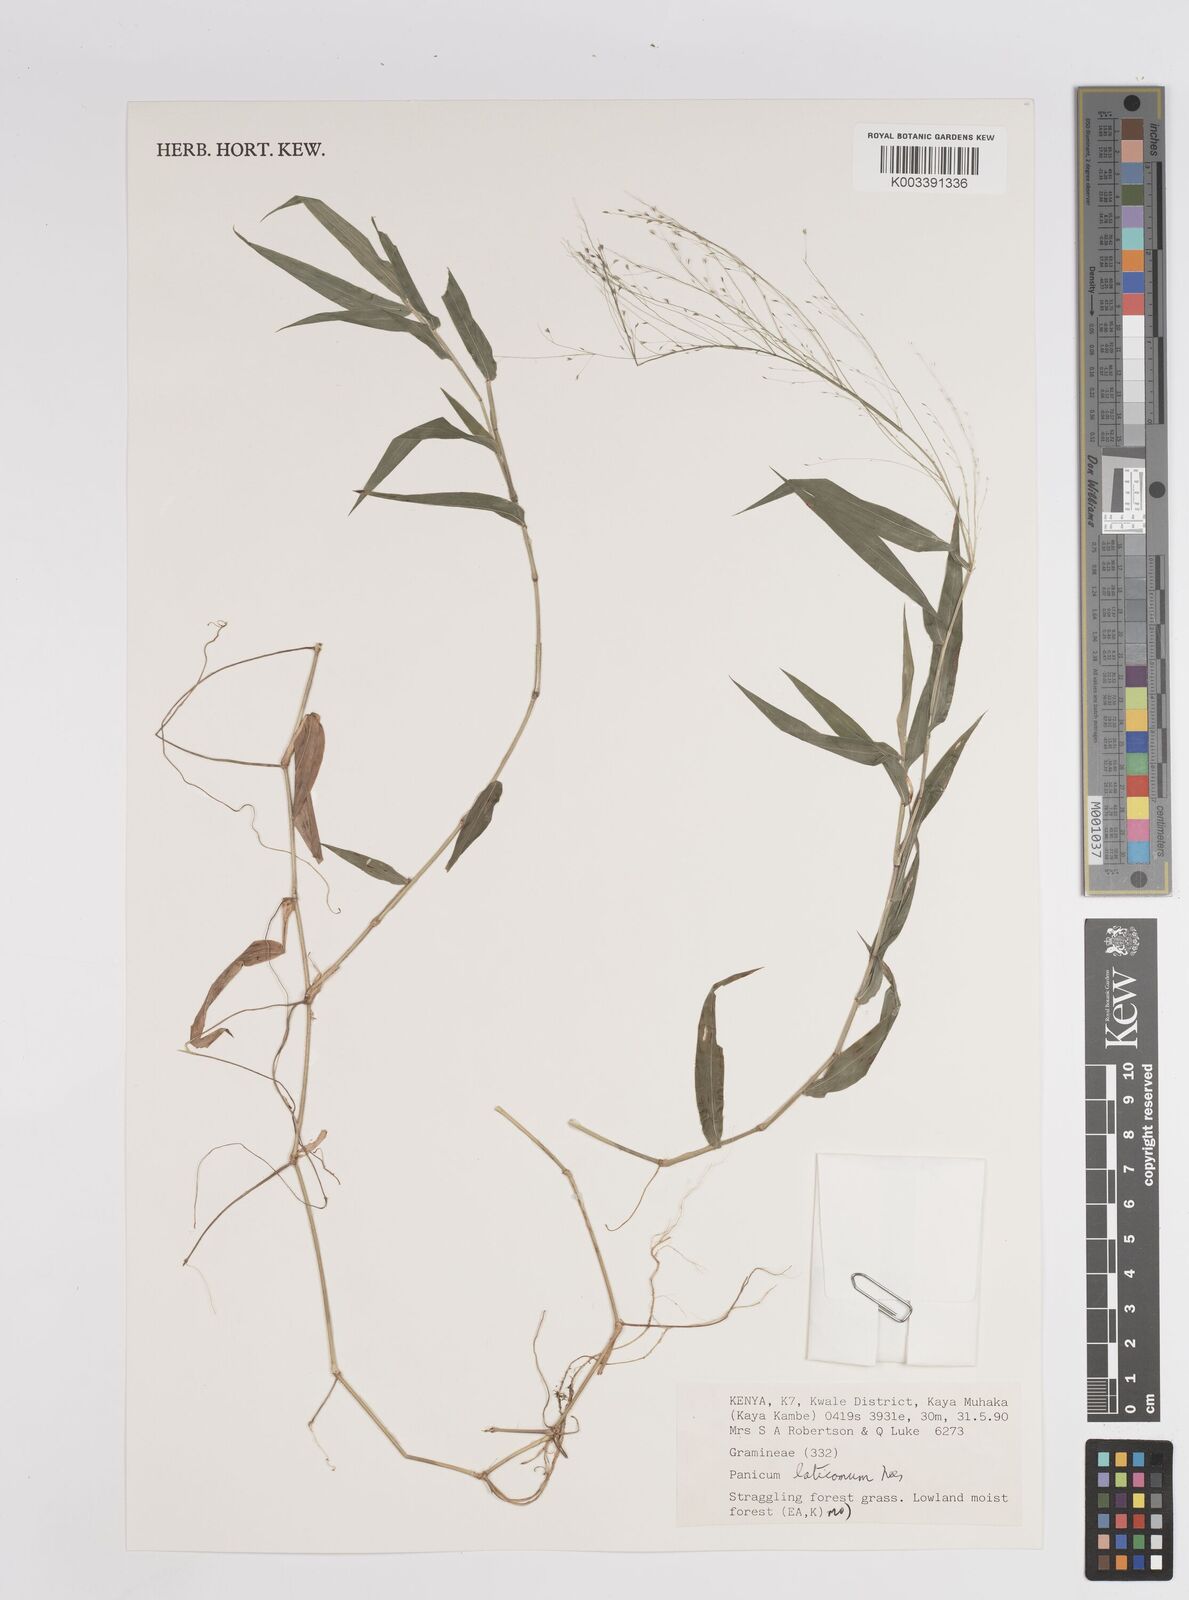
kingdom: Plantae
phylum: Tracheophyta
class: Liliopsida
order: Poales
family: Poaceae
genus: Panicum
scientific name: Panicum laticomum
